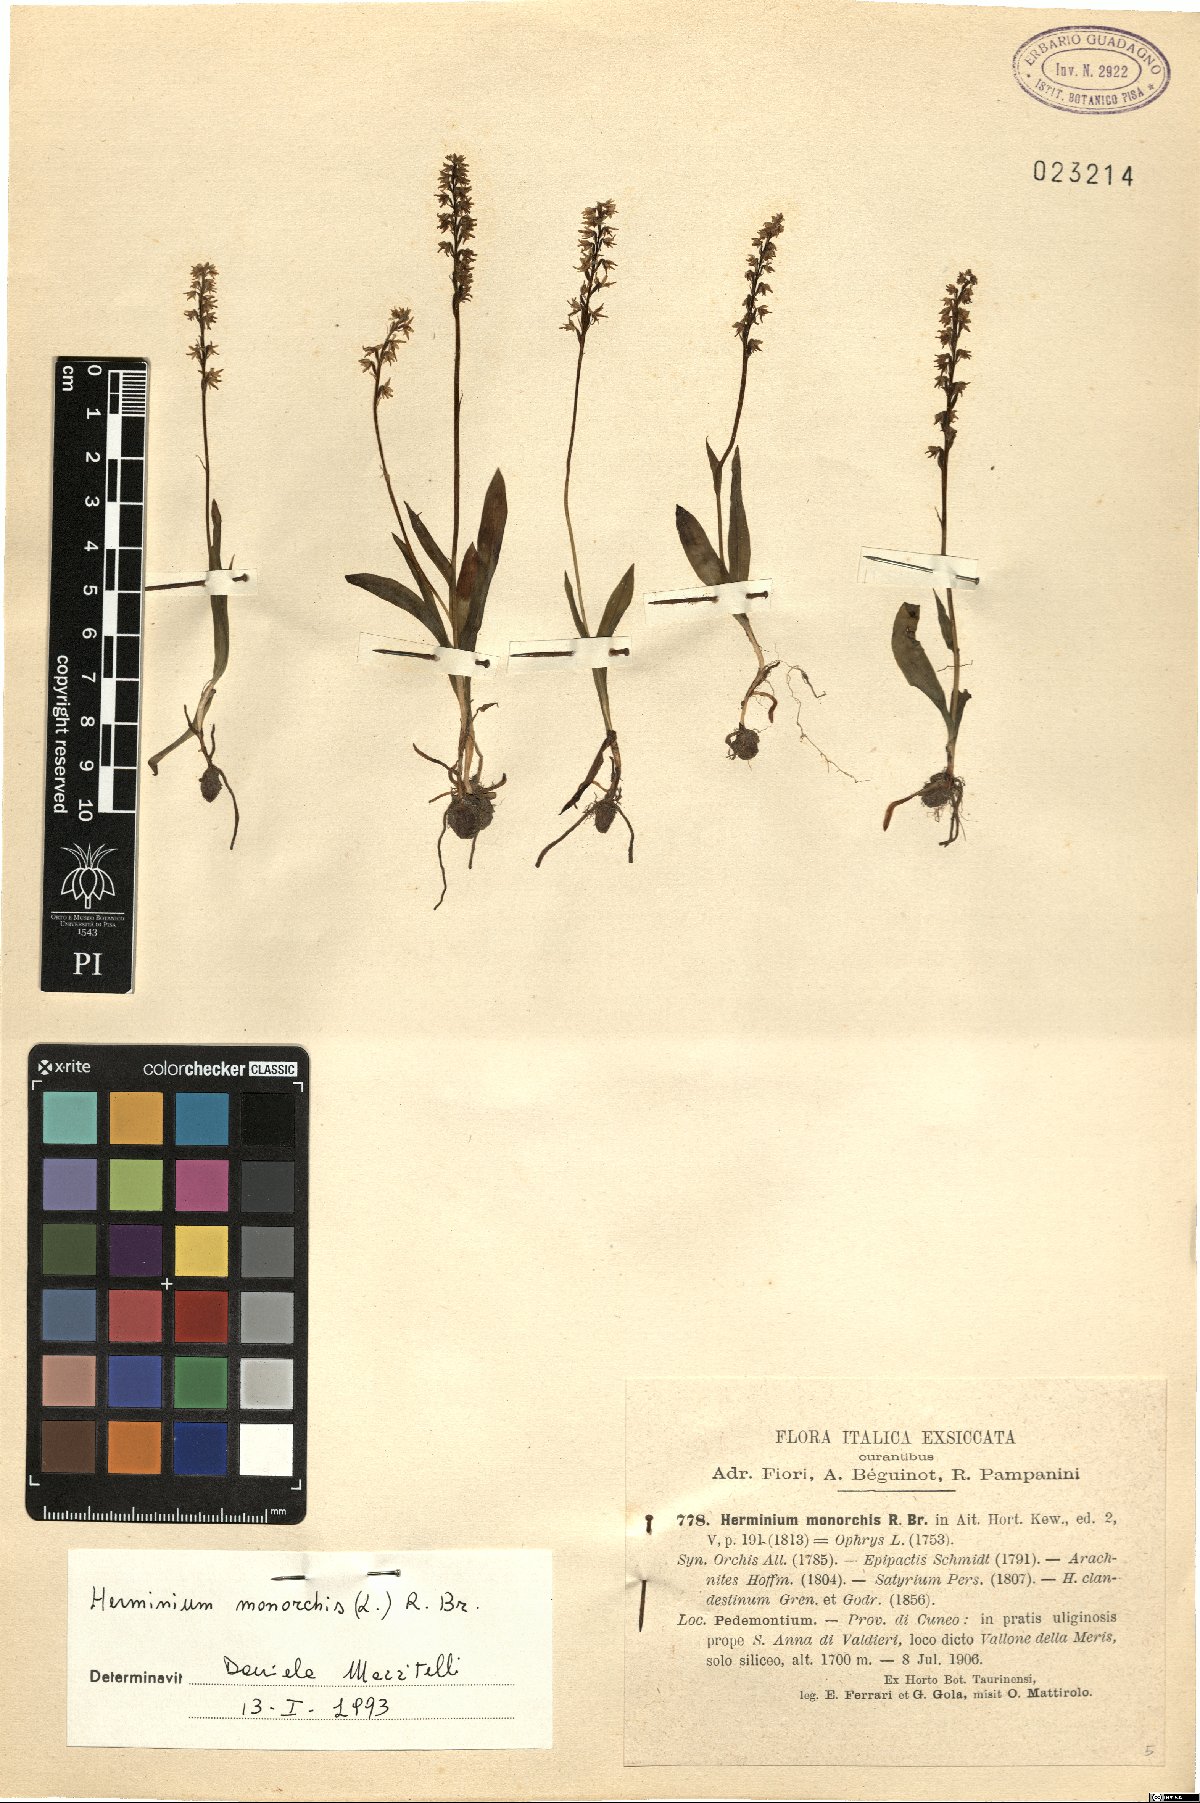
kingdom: Plantae
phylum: Tracheophyta
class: Liliopsida
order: Asparagales
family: Orchidaceae
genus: Herminium
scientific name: Herminium monorchis
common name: Musk orchid
